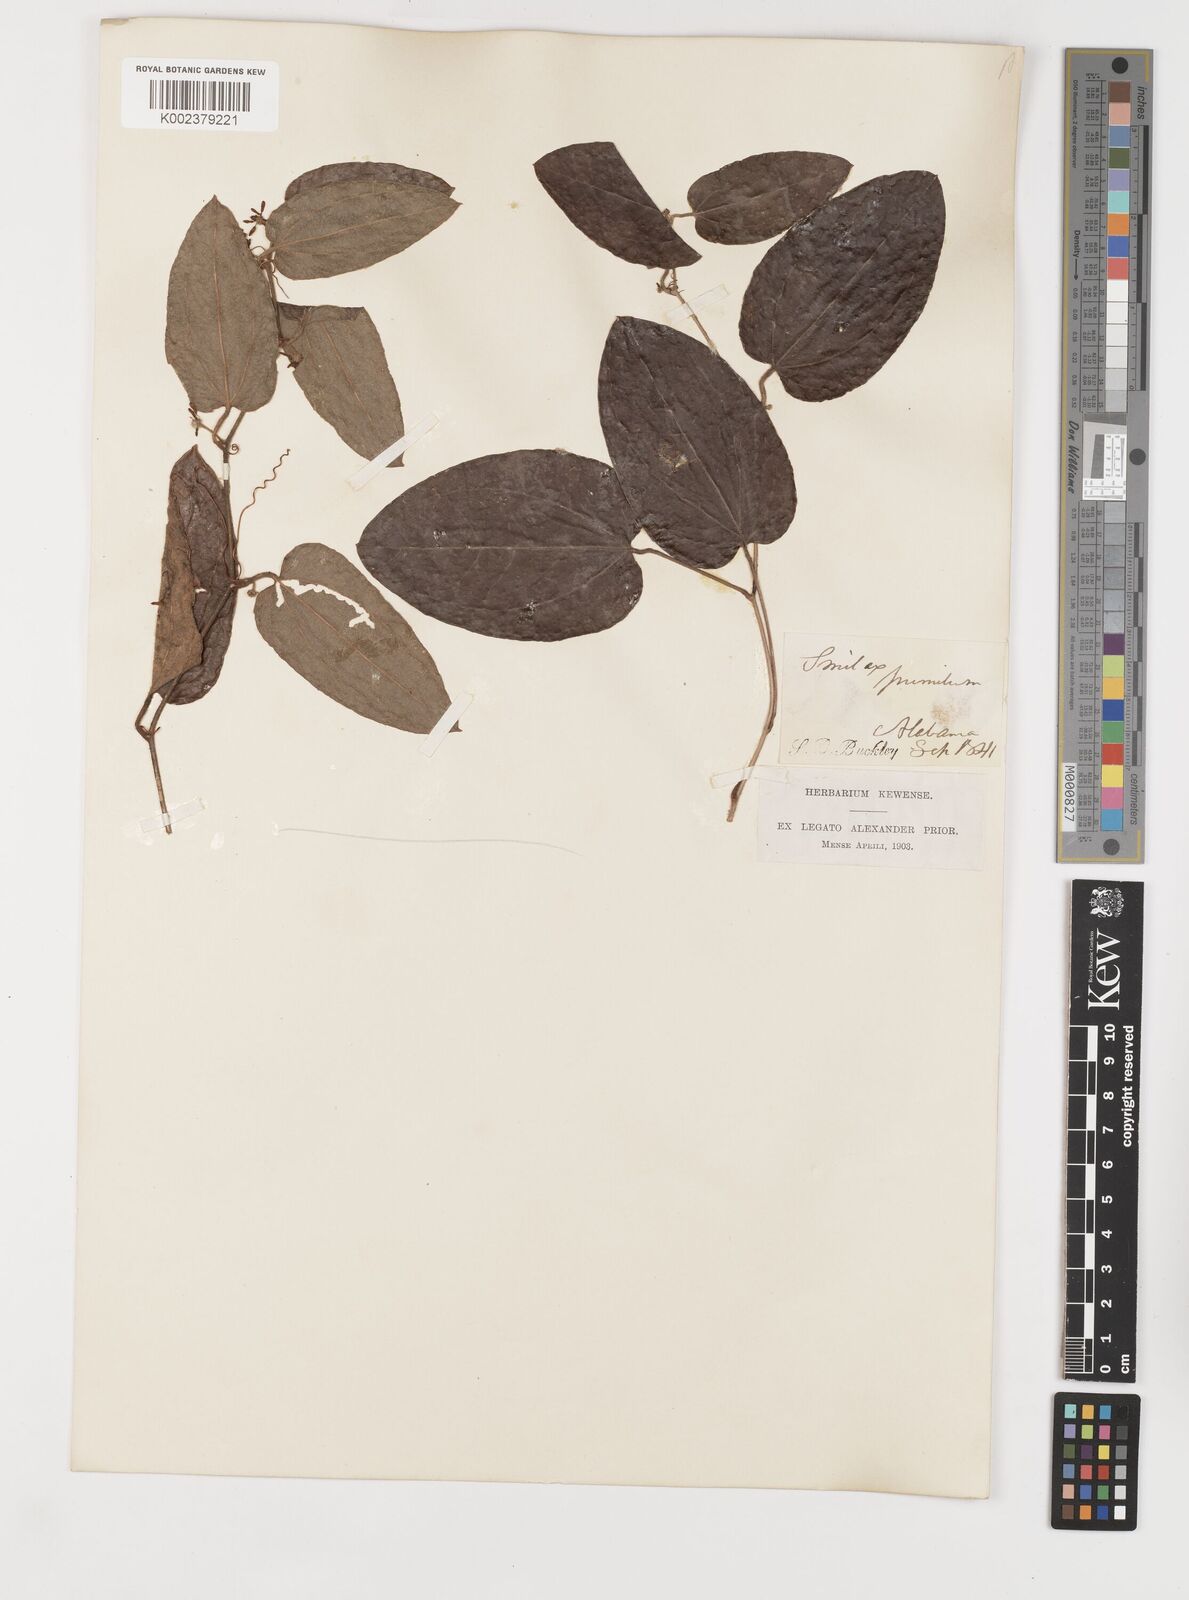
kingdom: Plantae
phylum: Tracheophyta
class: Liliopsida
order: Liliales
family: Smilacaceae
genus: Smilax
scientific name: Smilax pumila
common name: Sarsaparilla-vine
